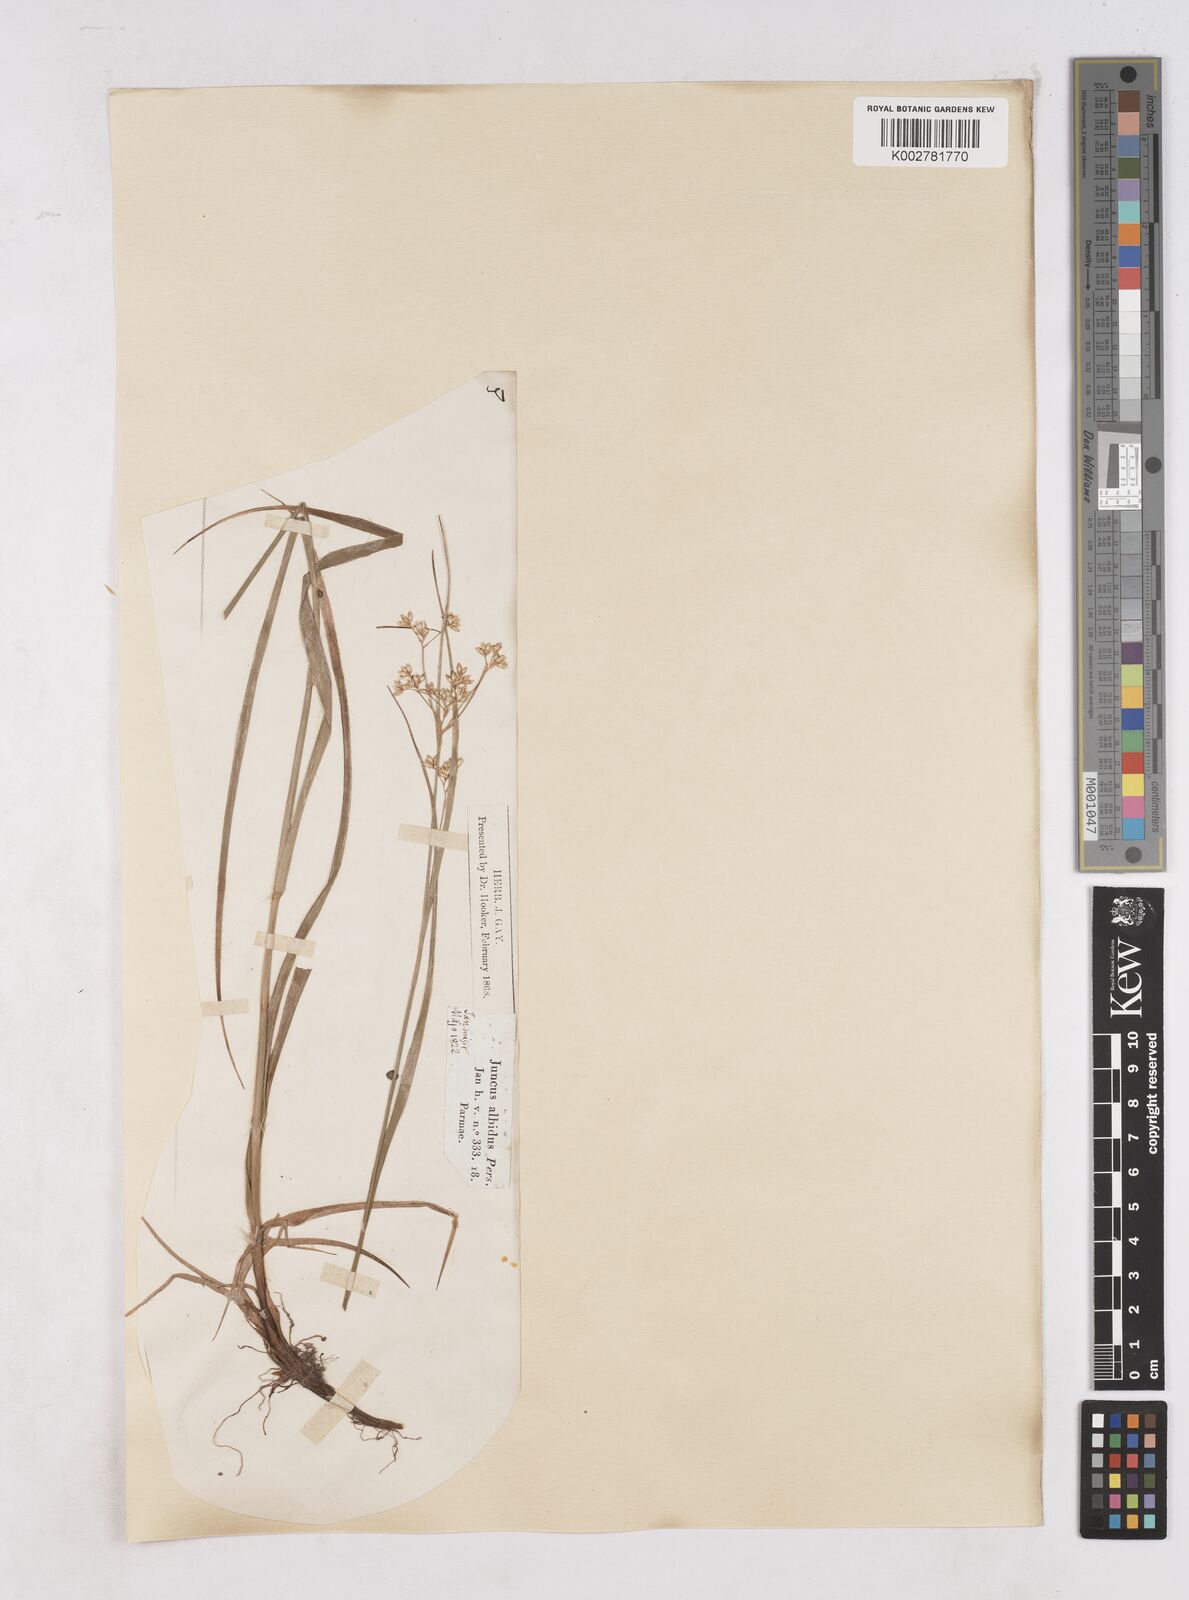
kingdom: Plantae
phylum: Tracheophyta
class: Liliopsida
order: Poales
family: Juncaceae
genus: Luzula
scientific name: Luzula luzuloides
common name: White wood-rush
